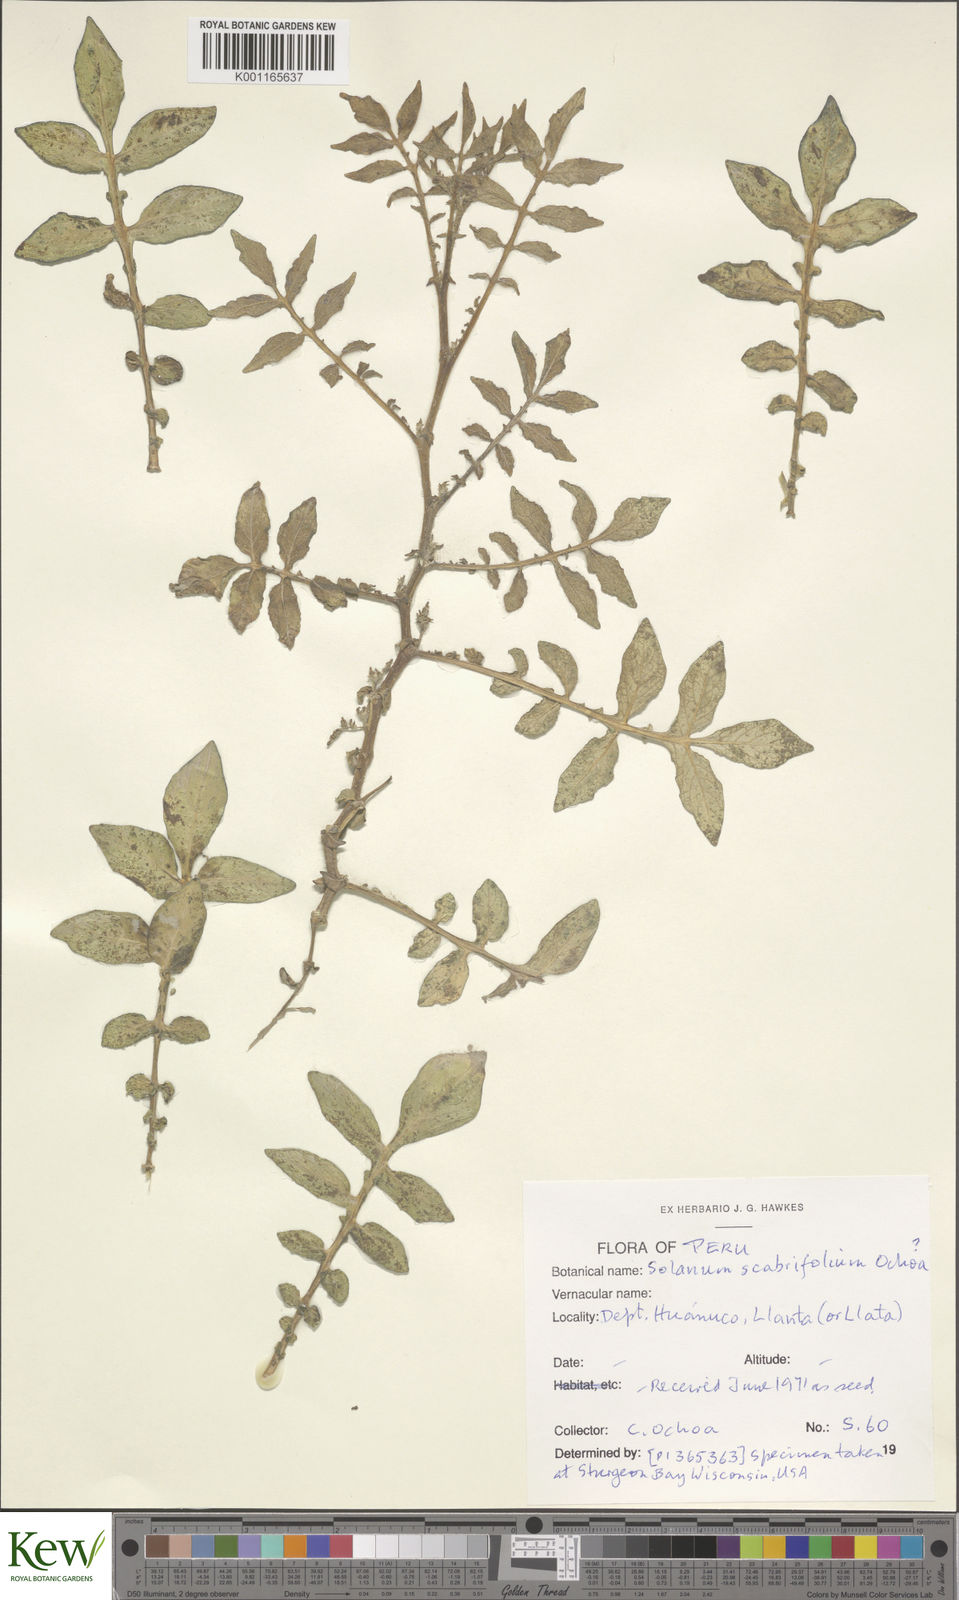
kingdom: Plantae
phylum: Tracheophyta
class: Magnoliopsida
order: Solanales
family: Solanaceae
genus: Solanum
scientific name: Solanum scabrifolium
